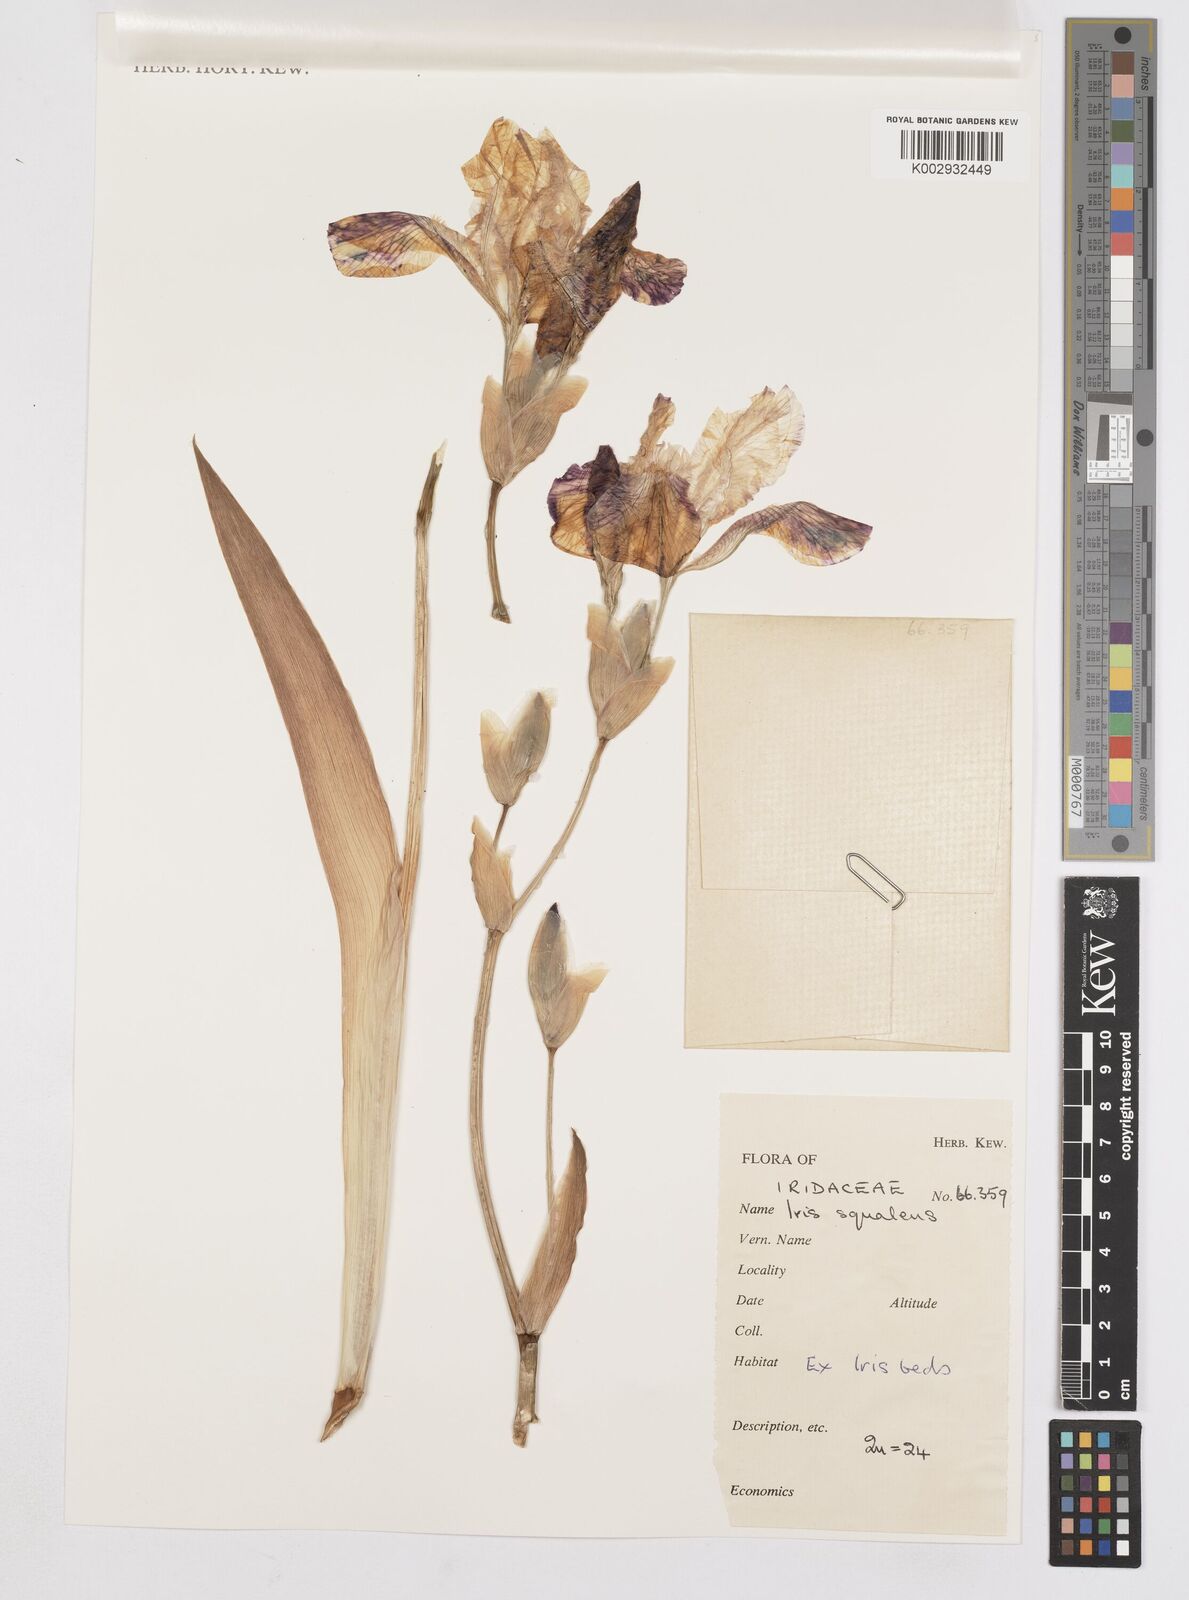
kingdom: Plantae
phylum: Tracheophyta
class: Liliopsida
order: Asparagales
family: Iridaceae
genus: Iris
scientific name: Iris
